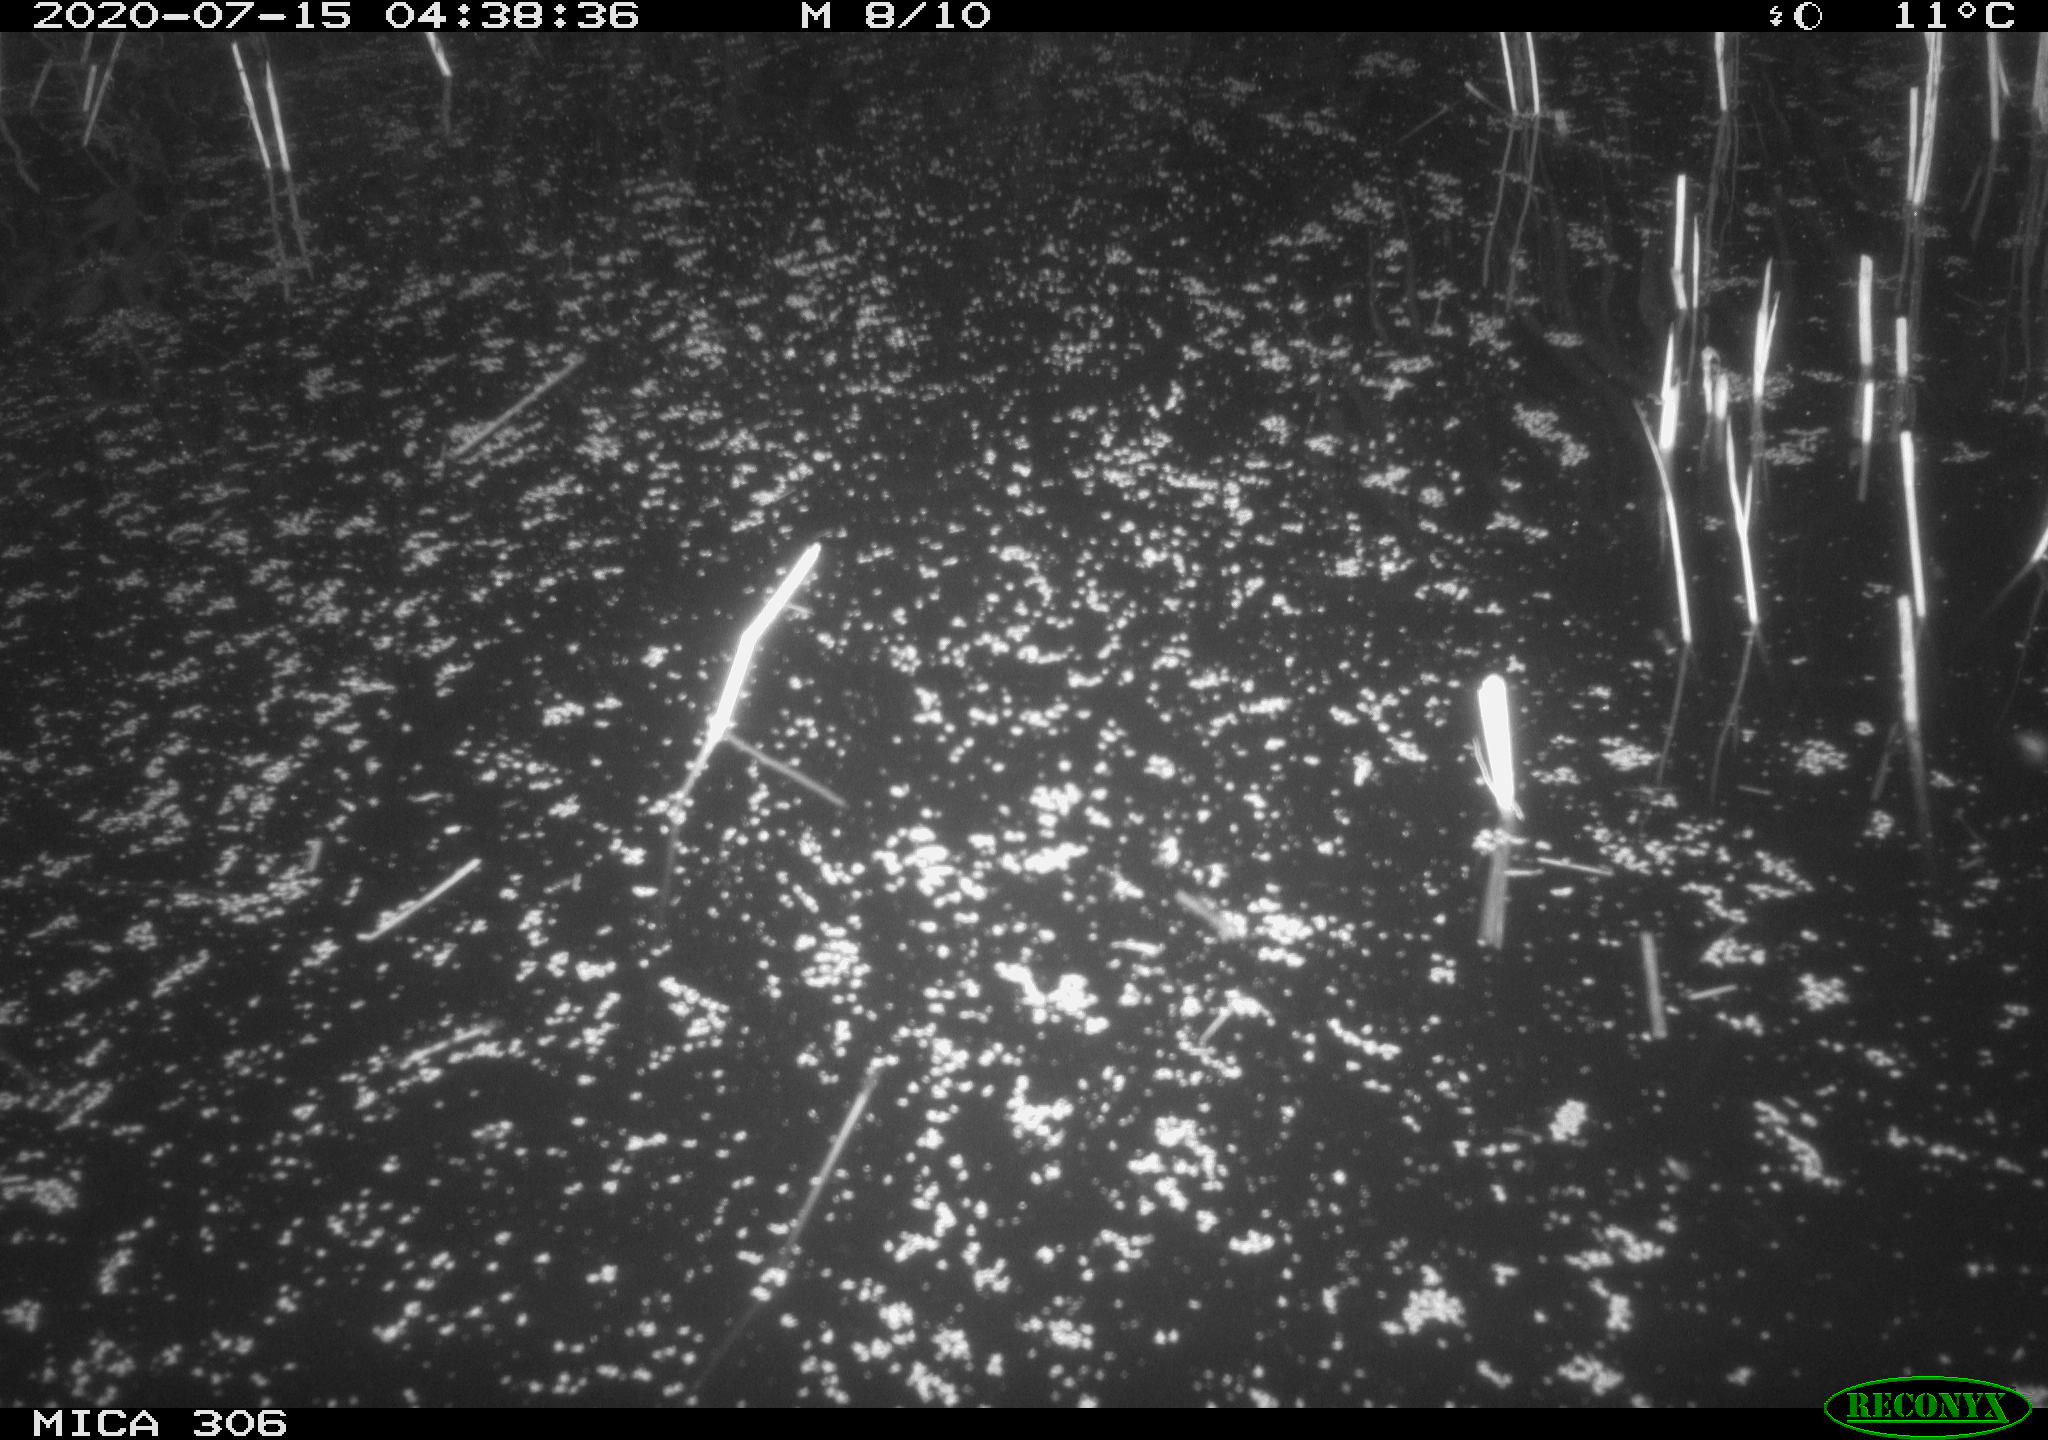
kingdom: Animalia
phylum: Chordata
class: Mammalia
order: Rodentia
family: Cricetidae
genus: Ondatra
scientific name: Ondatra zibethicus
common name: Muskrat
